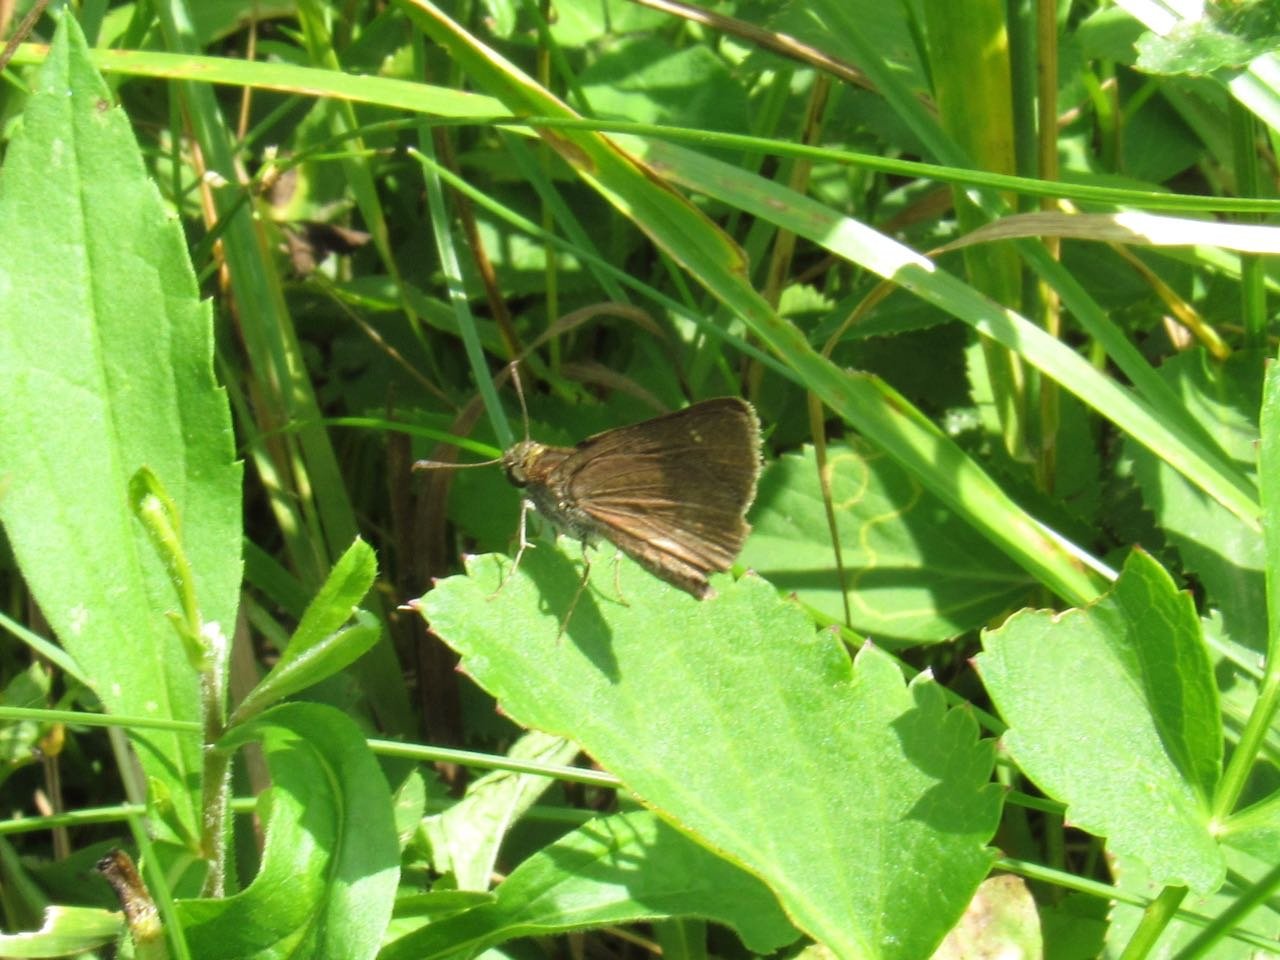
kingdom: Animalia
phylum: Arthropoda
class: Insecta
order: Lepidoptera
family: Hesperiidae
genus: Euphyes
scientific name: Euphyes vestris
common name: Dun Skipper
